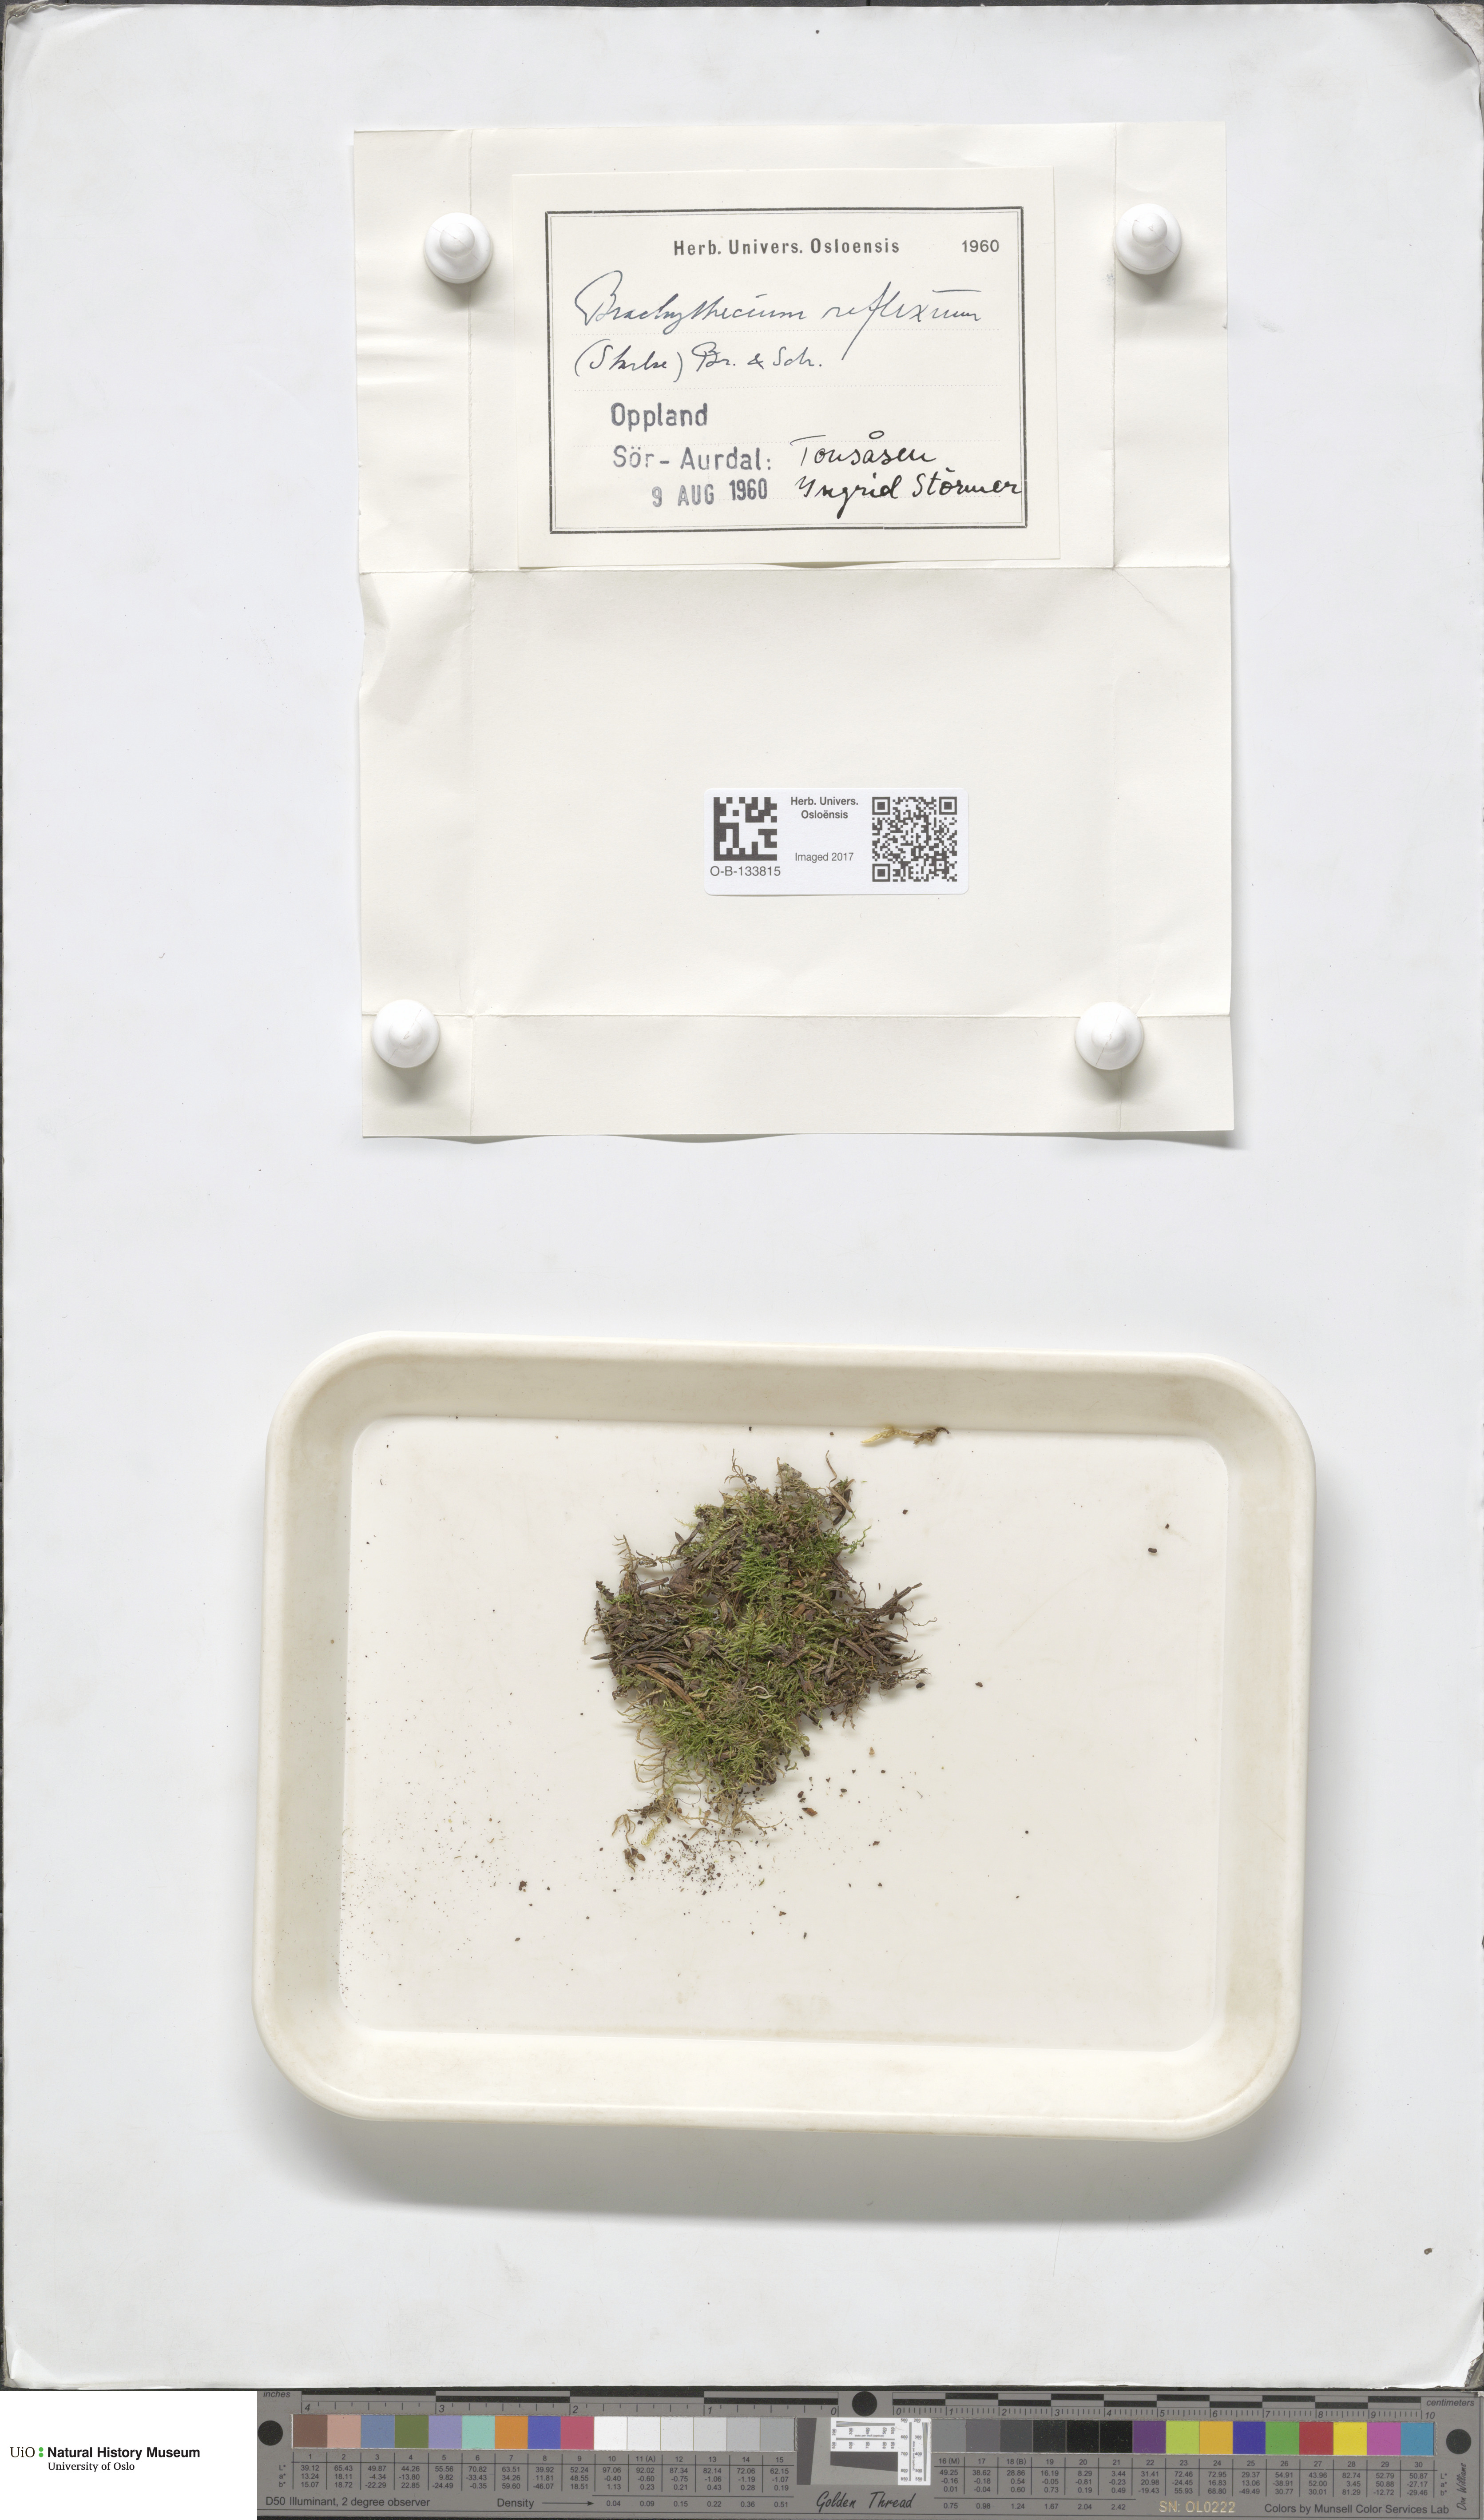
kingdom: Plantae
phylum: Bryophyta
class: Bryopsida
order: Hypnales
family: Brachytheciaceae
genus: Sciuro-hypnum
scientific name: Sciuro-hypnum reflexum
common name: Reflexed feather-moss
